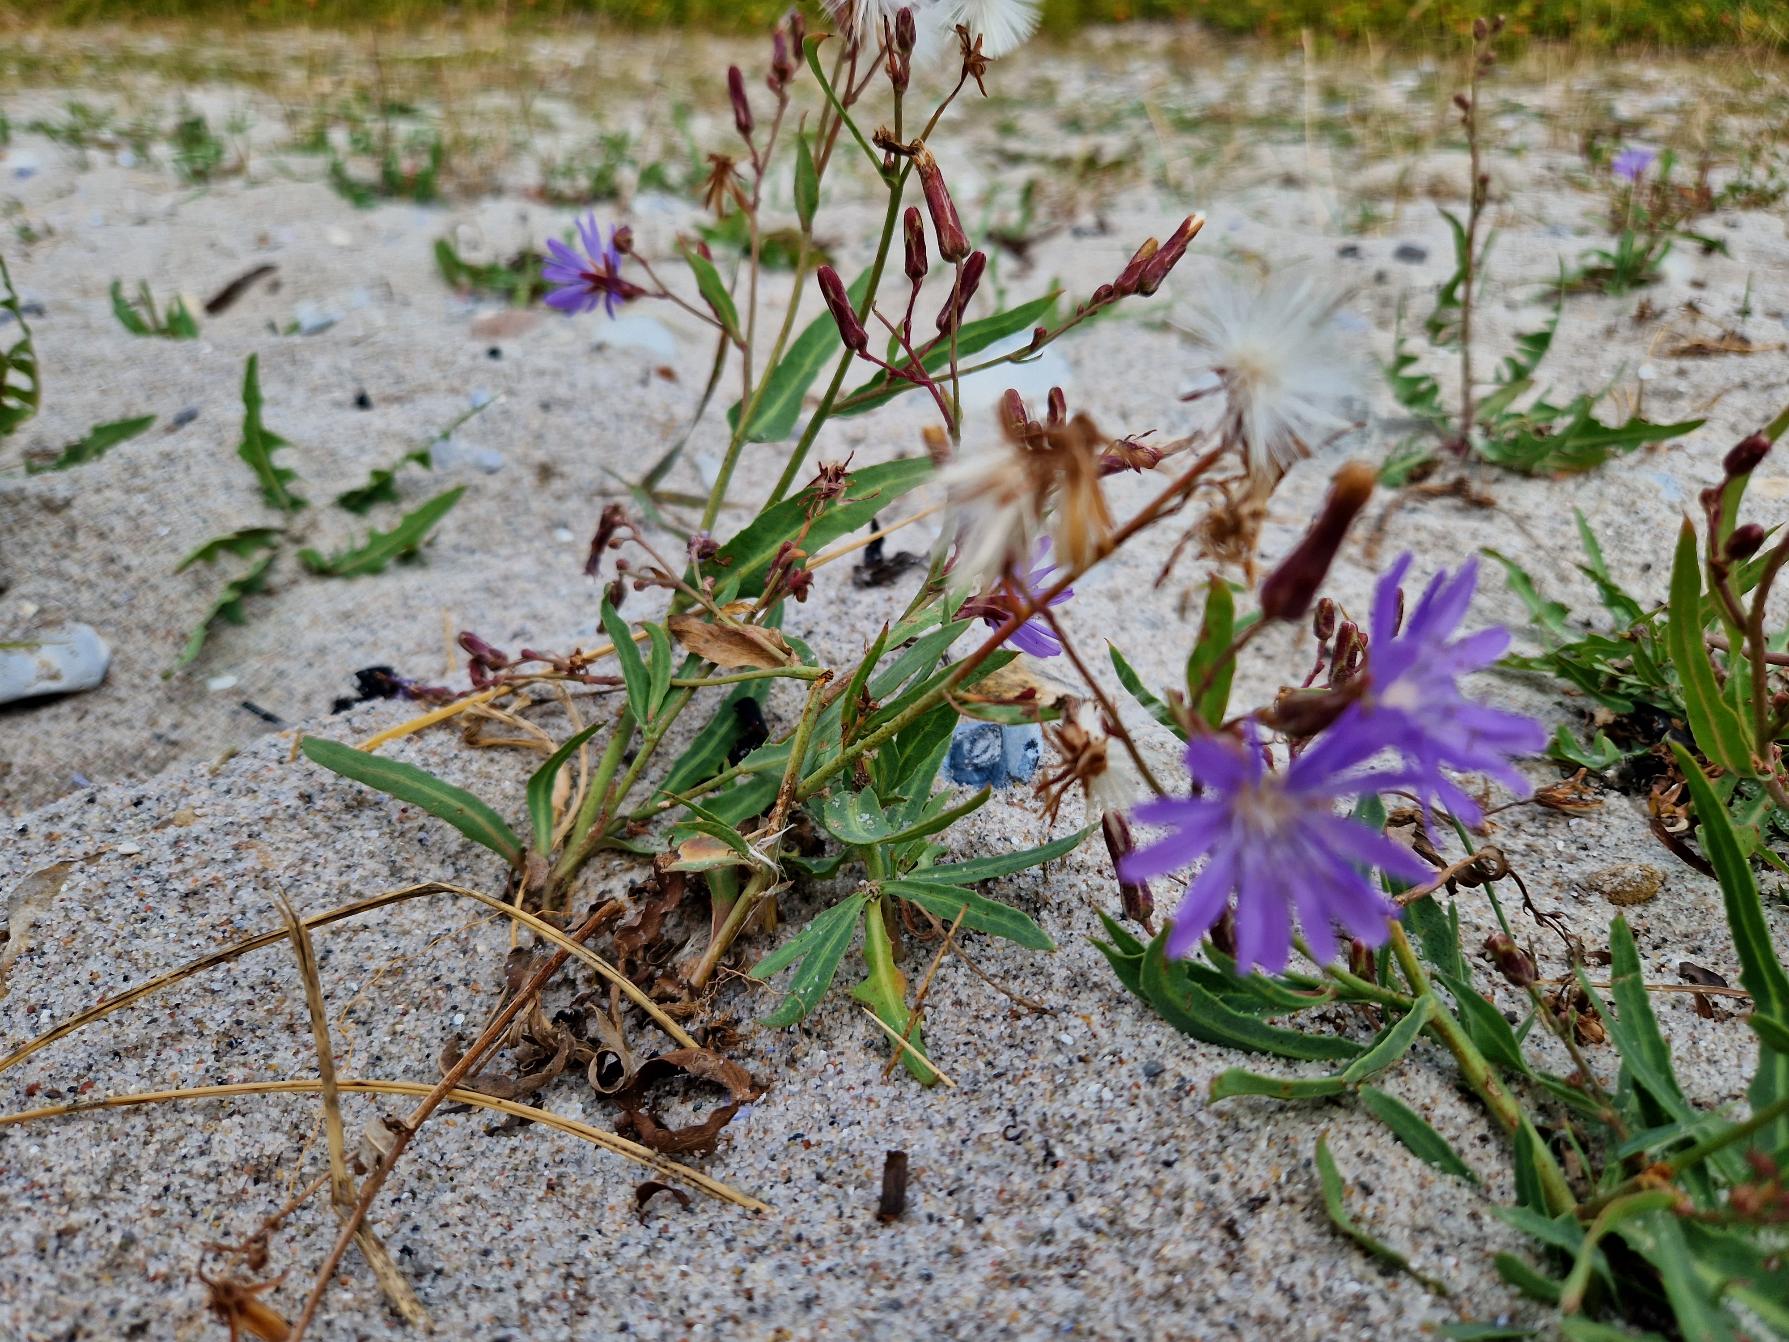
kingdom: Plantae
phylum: Tracheophyta
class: Magnoliopsida
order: Asterales
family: Asteraceae
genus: Lactuca
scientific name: Lactuca tatarica
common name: Strand-salat
